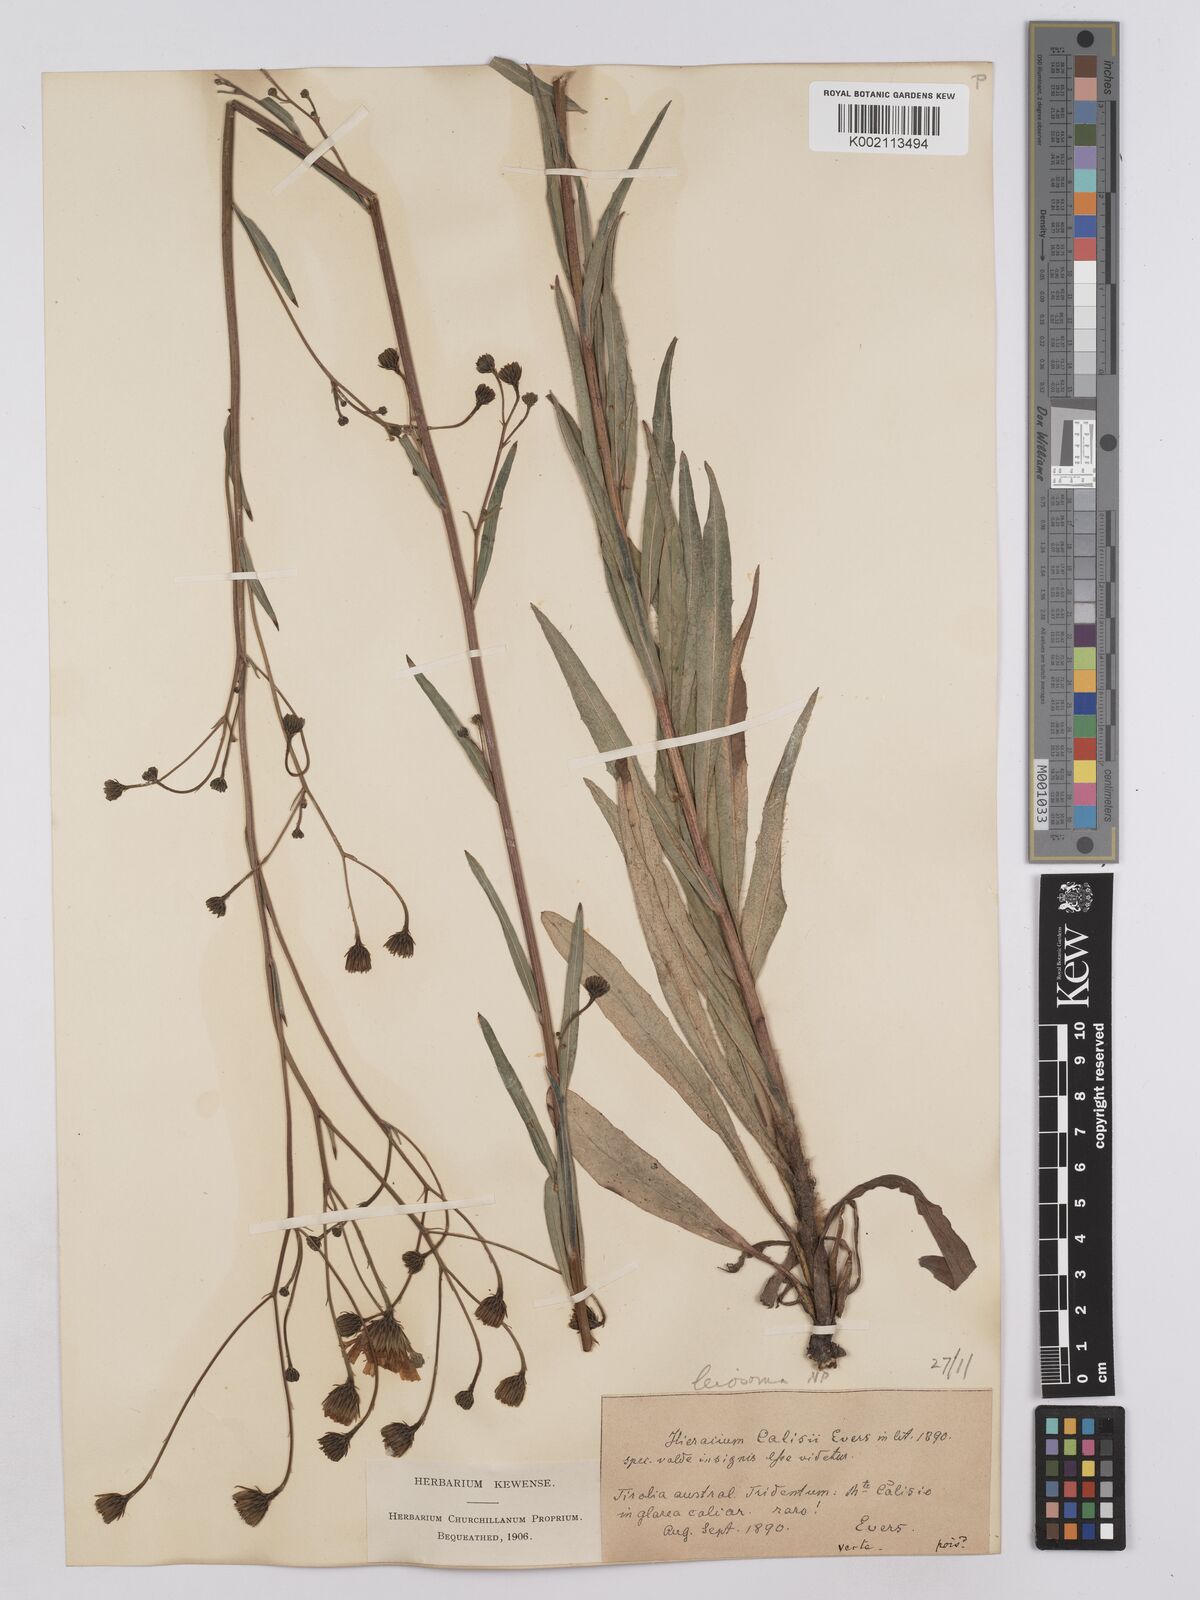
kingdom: Plantae
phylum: Tracheophyta
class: Magnoliopsida
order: Asterales
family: Asteraceae
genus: Hieracium
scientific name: Hieracium leiocephalum
